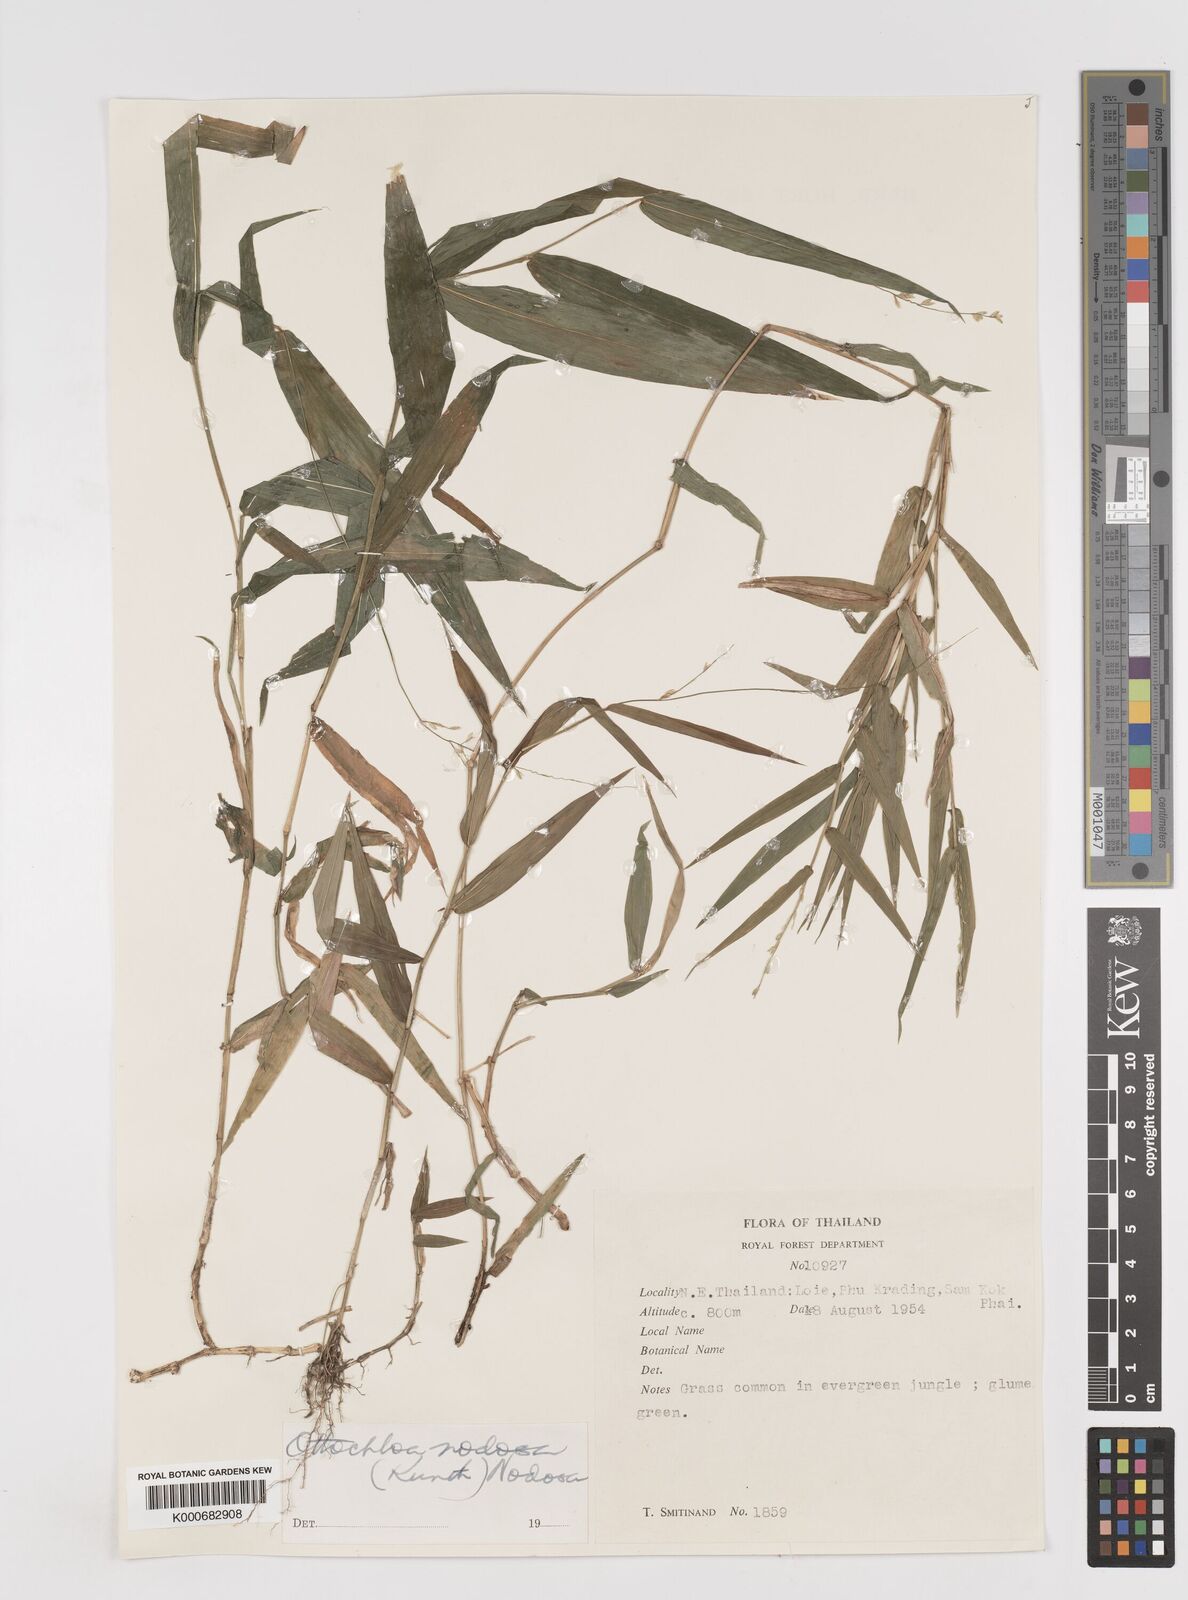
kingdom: Plantae
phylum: Tracheophyta
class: Liliopsida
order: Poales
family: Poaceae
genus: Ottochloa
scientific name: Ottochloa nodosa
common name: Slender-panic grass
